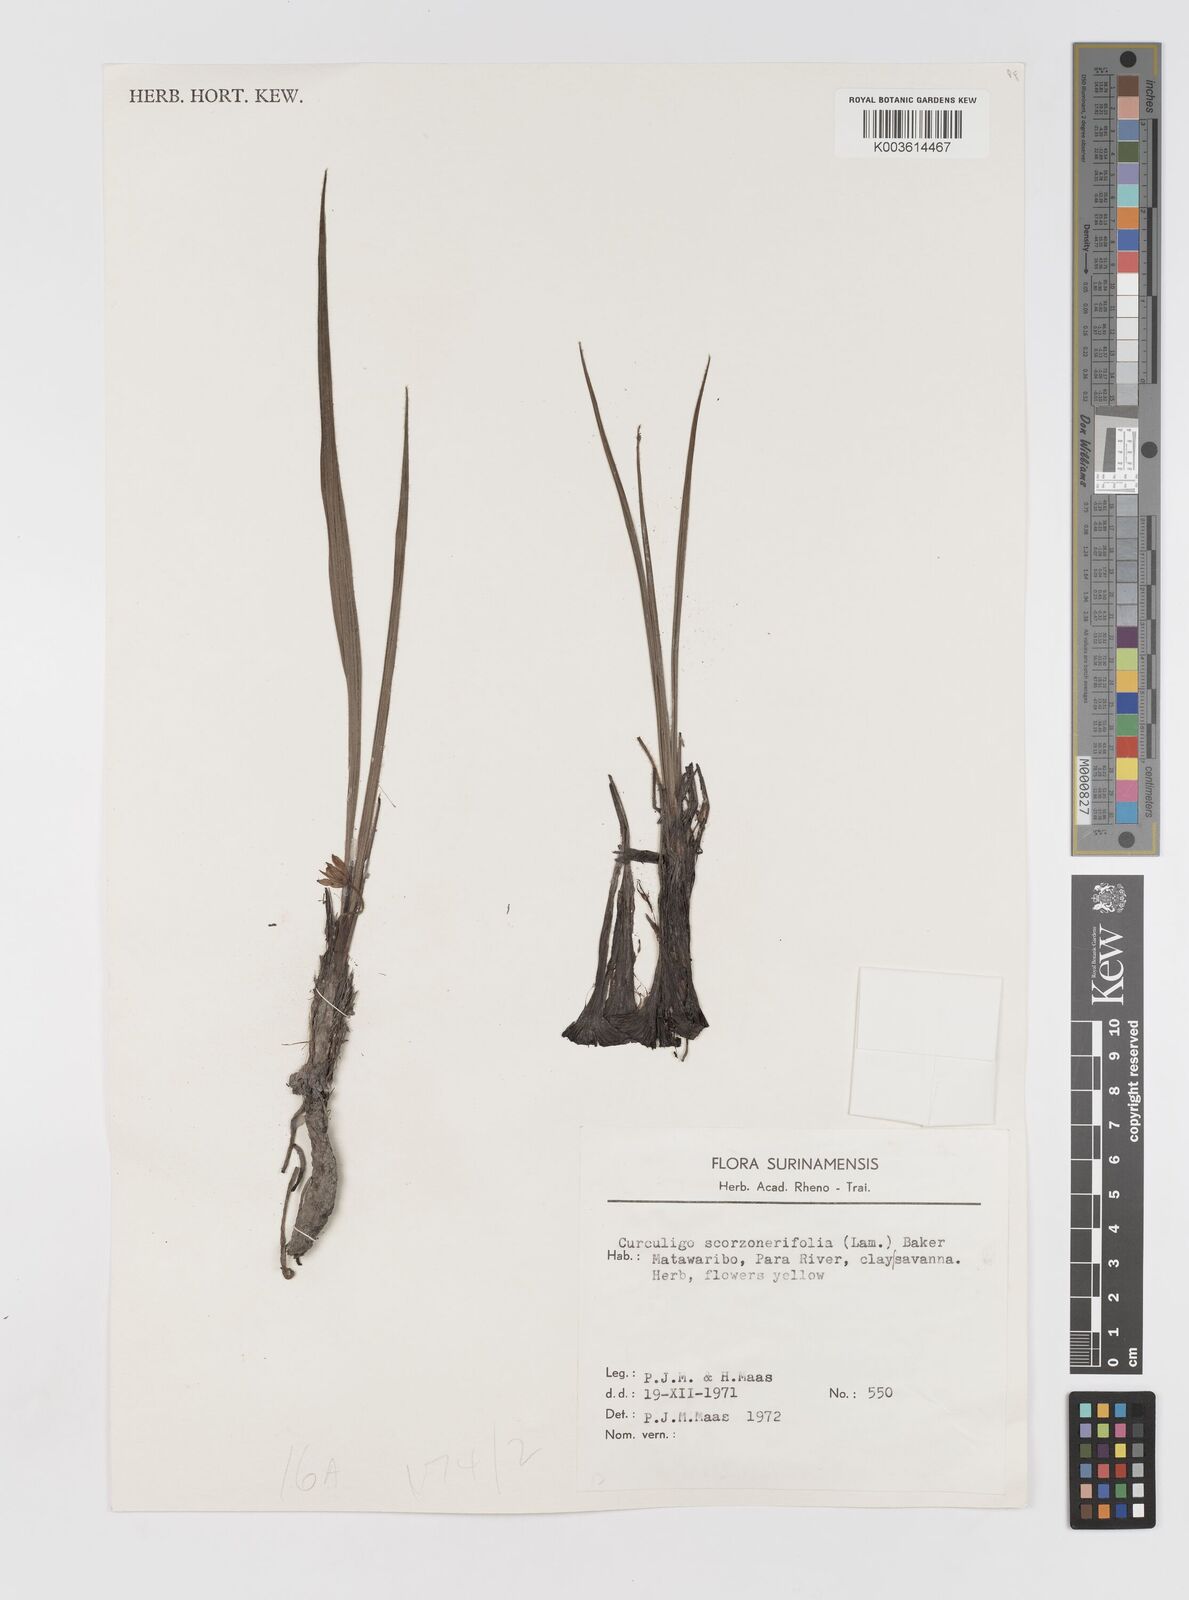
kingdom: Plantae
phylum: Tracheophyta
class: Liliopsida
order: Asparagales
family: Hypoxidaceae
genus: Curculigo
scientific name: Curculigo scorzonerifolia
